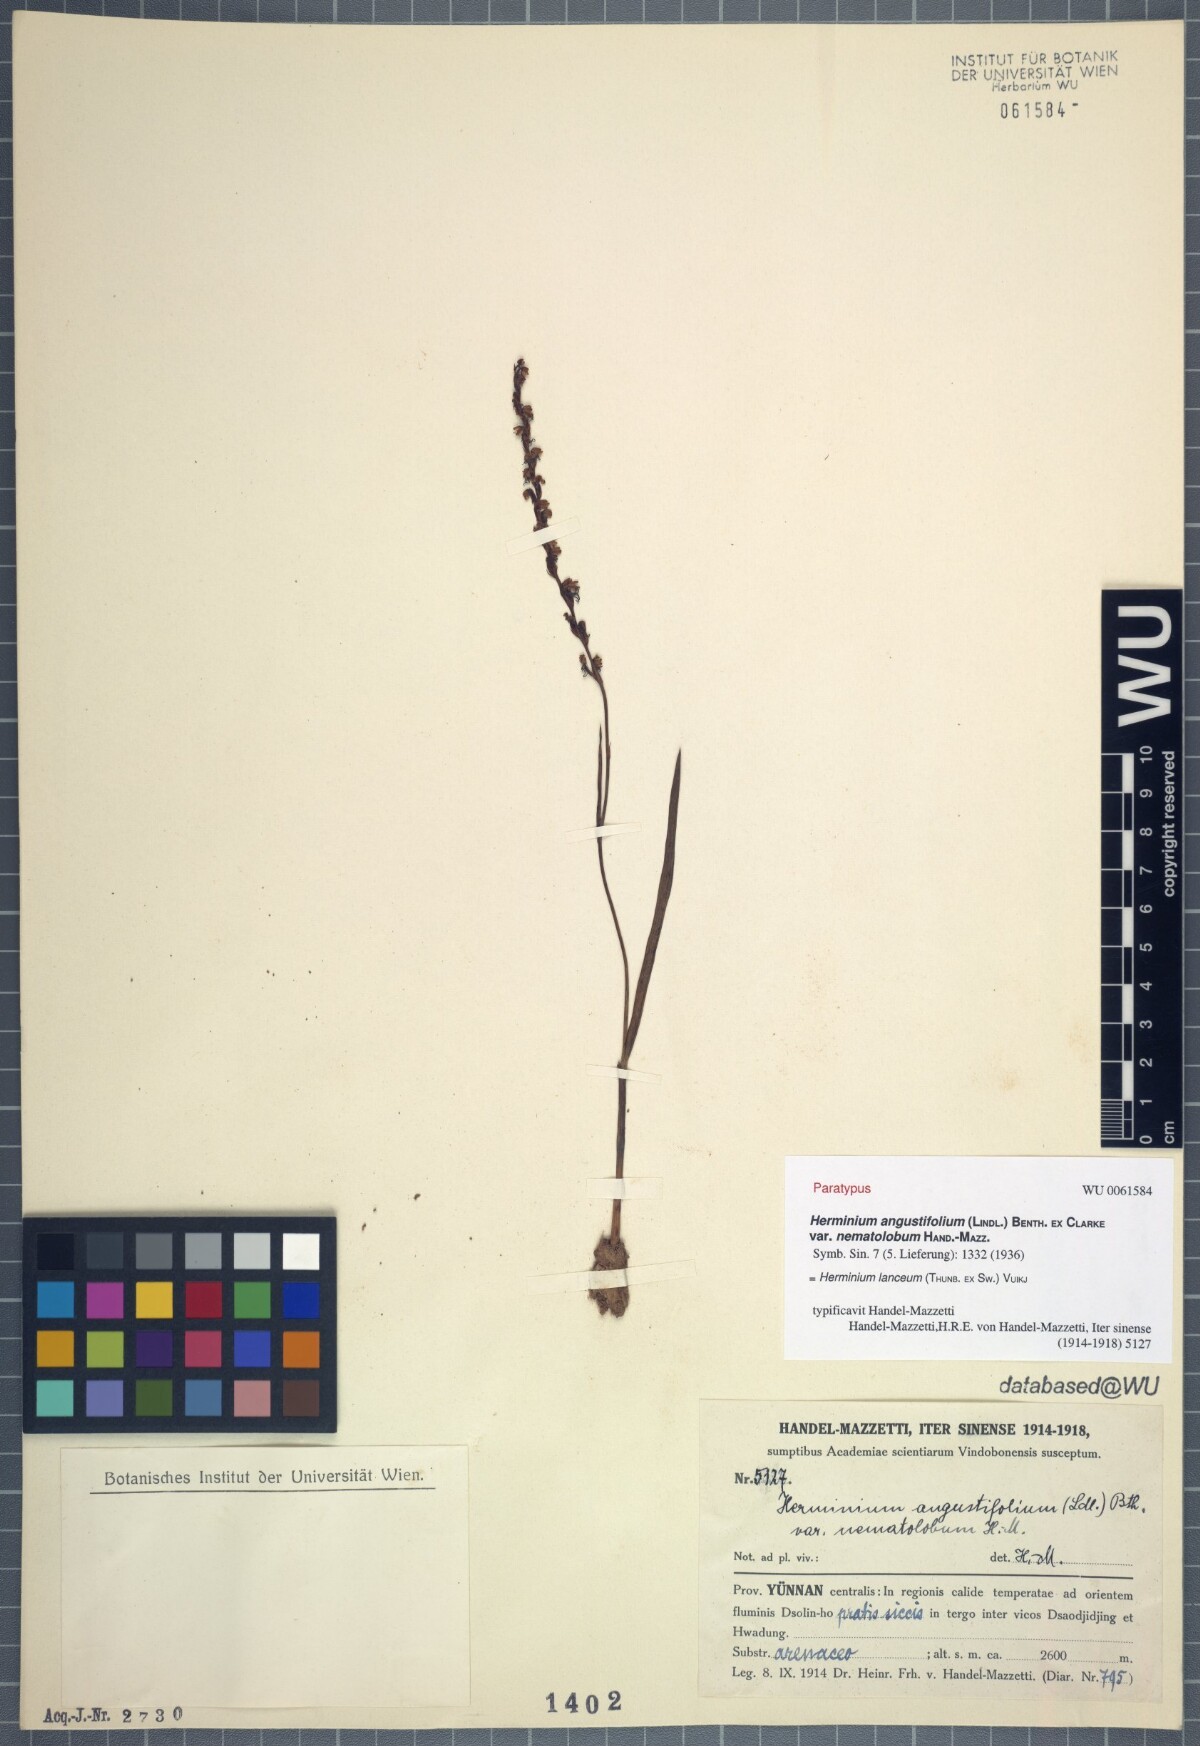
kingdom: Plantae
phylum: Tracheophyta
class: Liliopsida
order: Asparagales
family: Orchidaceae
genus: Herminium
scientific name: Herminium lanceum
